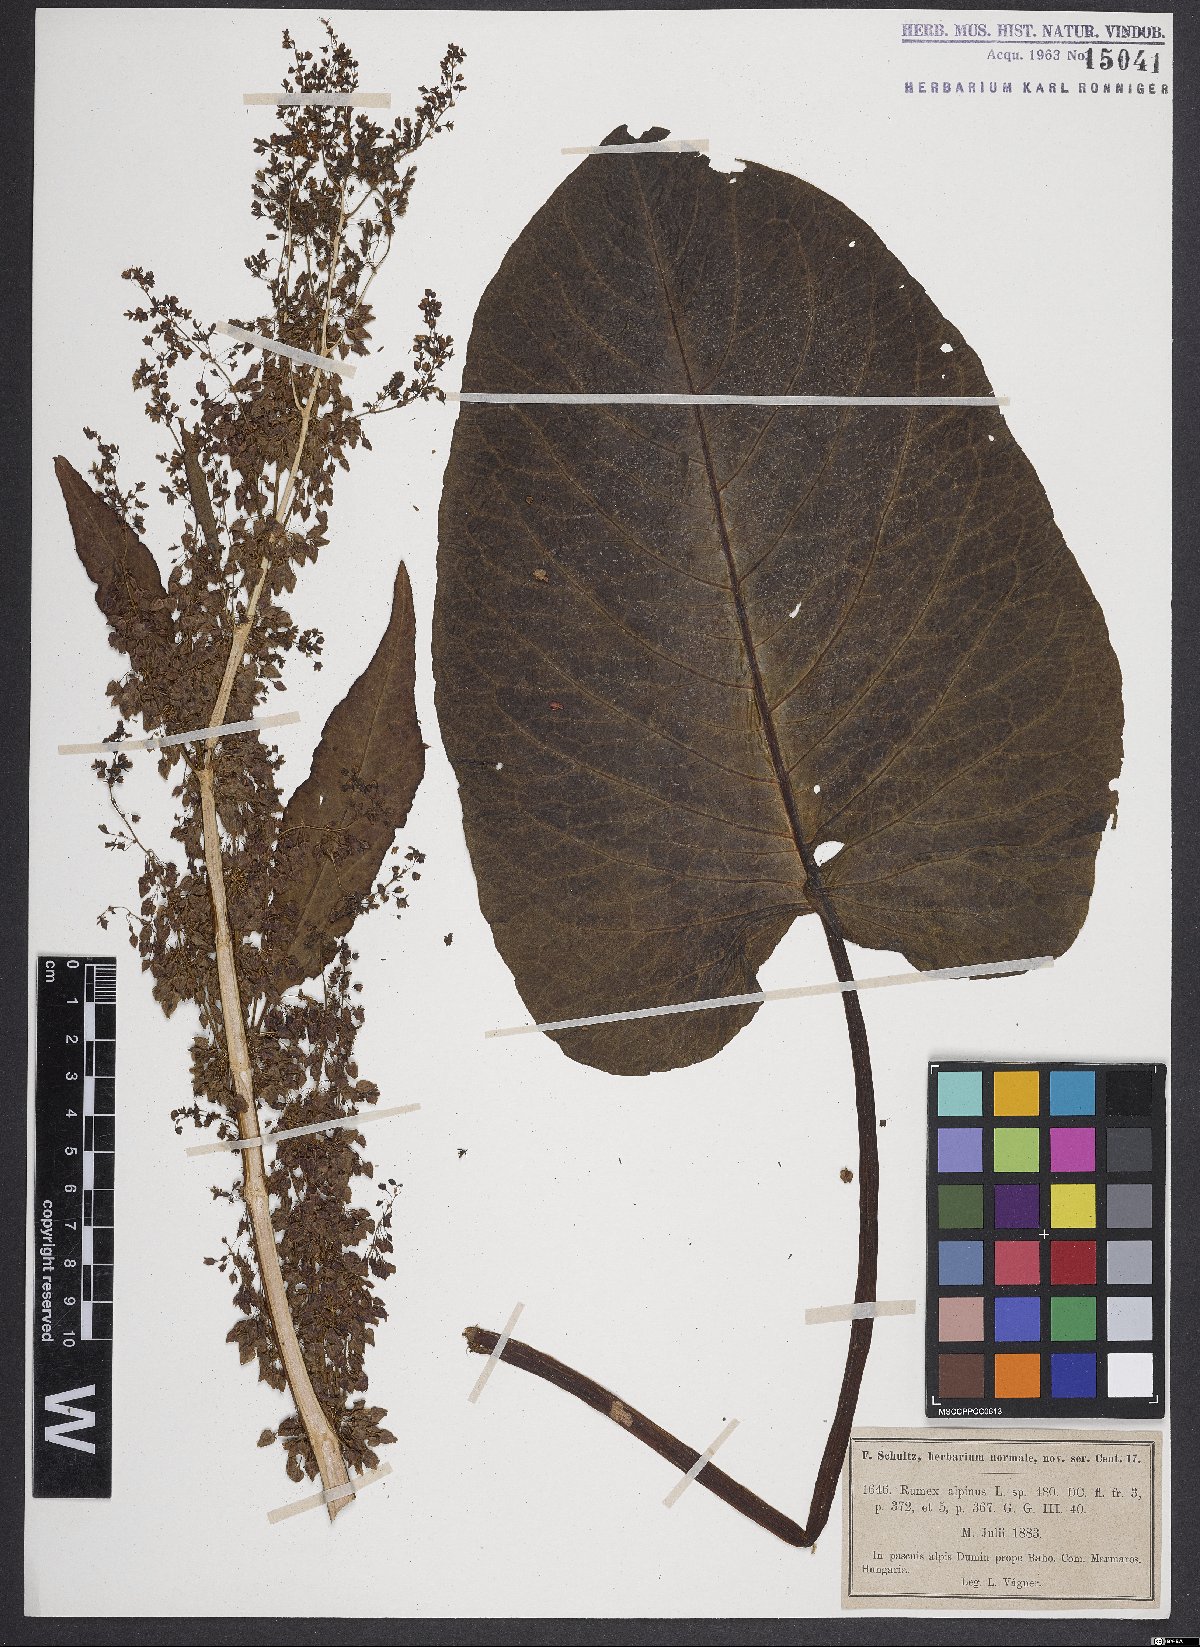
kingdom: Plantae
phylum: Tracheophyta
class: Magnoliopsida
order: Caryophyllales
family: Polygonaceae
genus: Rumex
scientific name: Rumex alpinus
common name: Alpine dock
